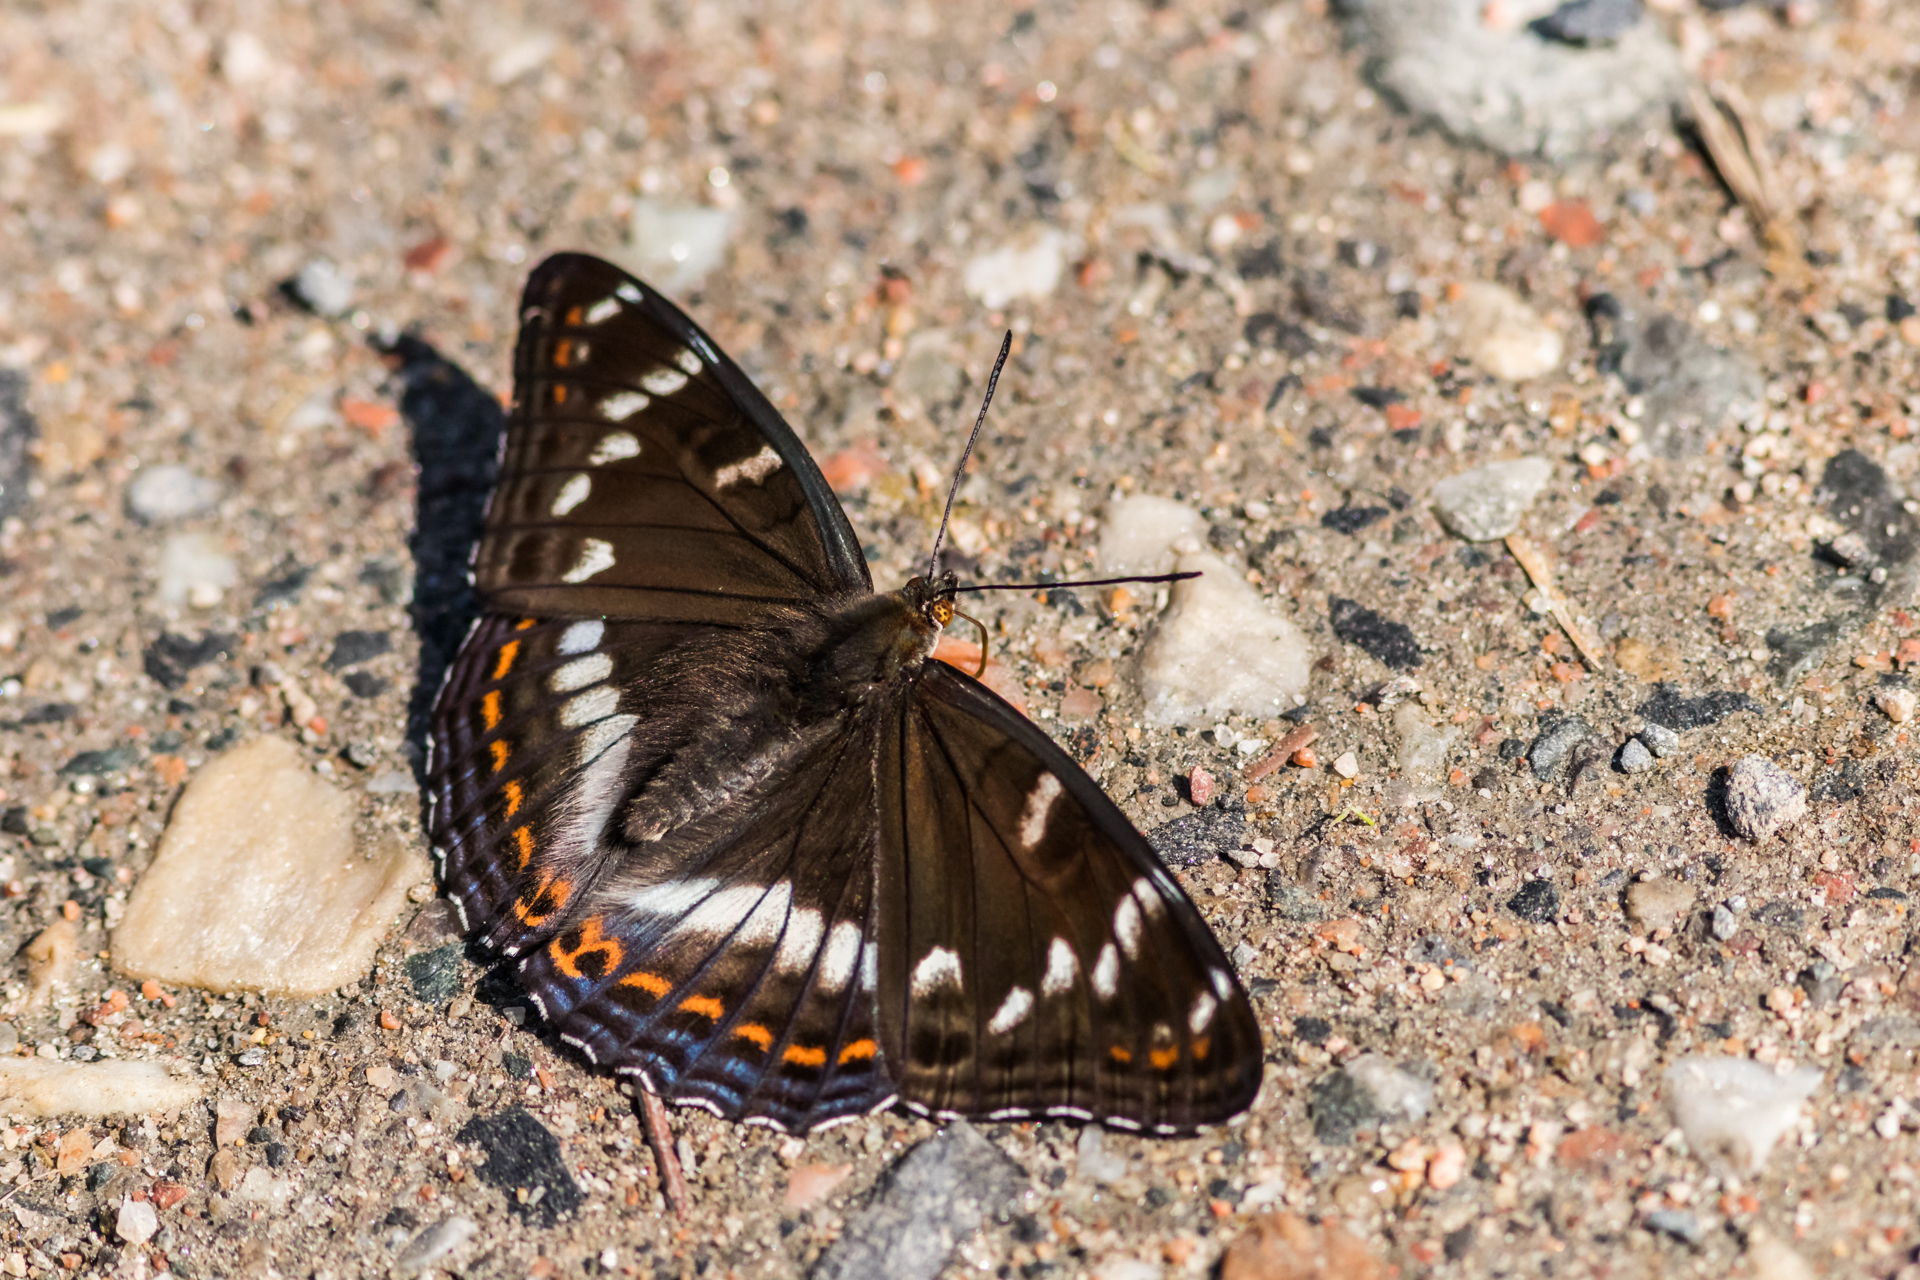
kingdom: Animalia
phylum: Arthropoda
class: Insecta
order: Lepidoptera
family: Nymphalidae
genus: Limenitis
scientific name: Limenitis populi
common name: Poplar admiral
